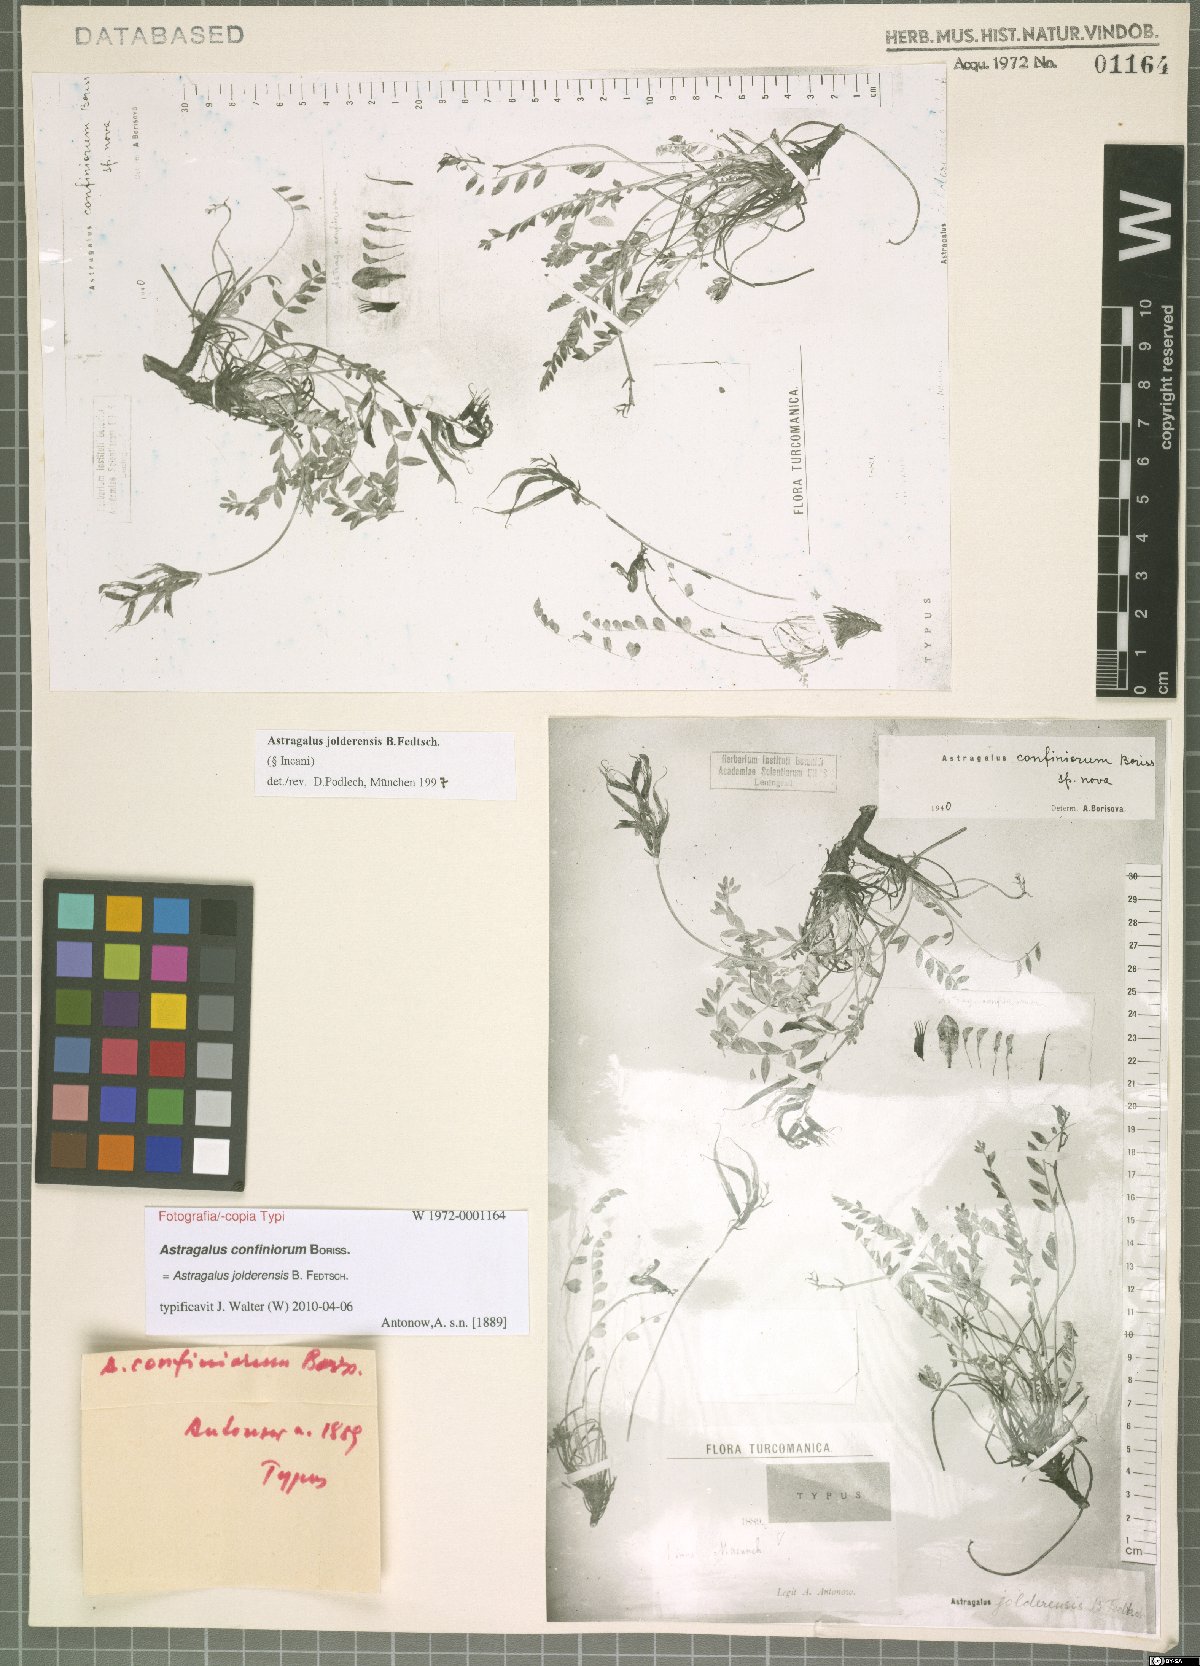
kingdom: Plantae
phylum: Tracheophyta
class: Magnoliopsida
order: Fabales
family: Fabaceae
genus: Astragalus
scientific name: Astragalus jolderensis
